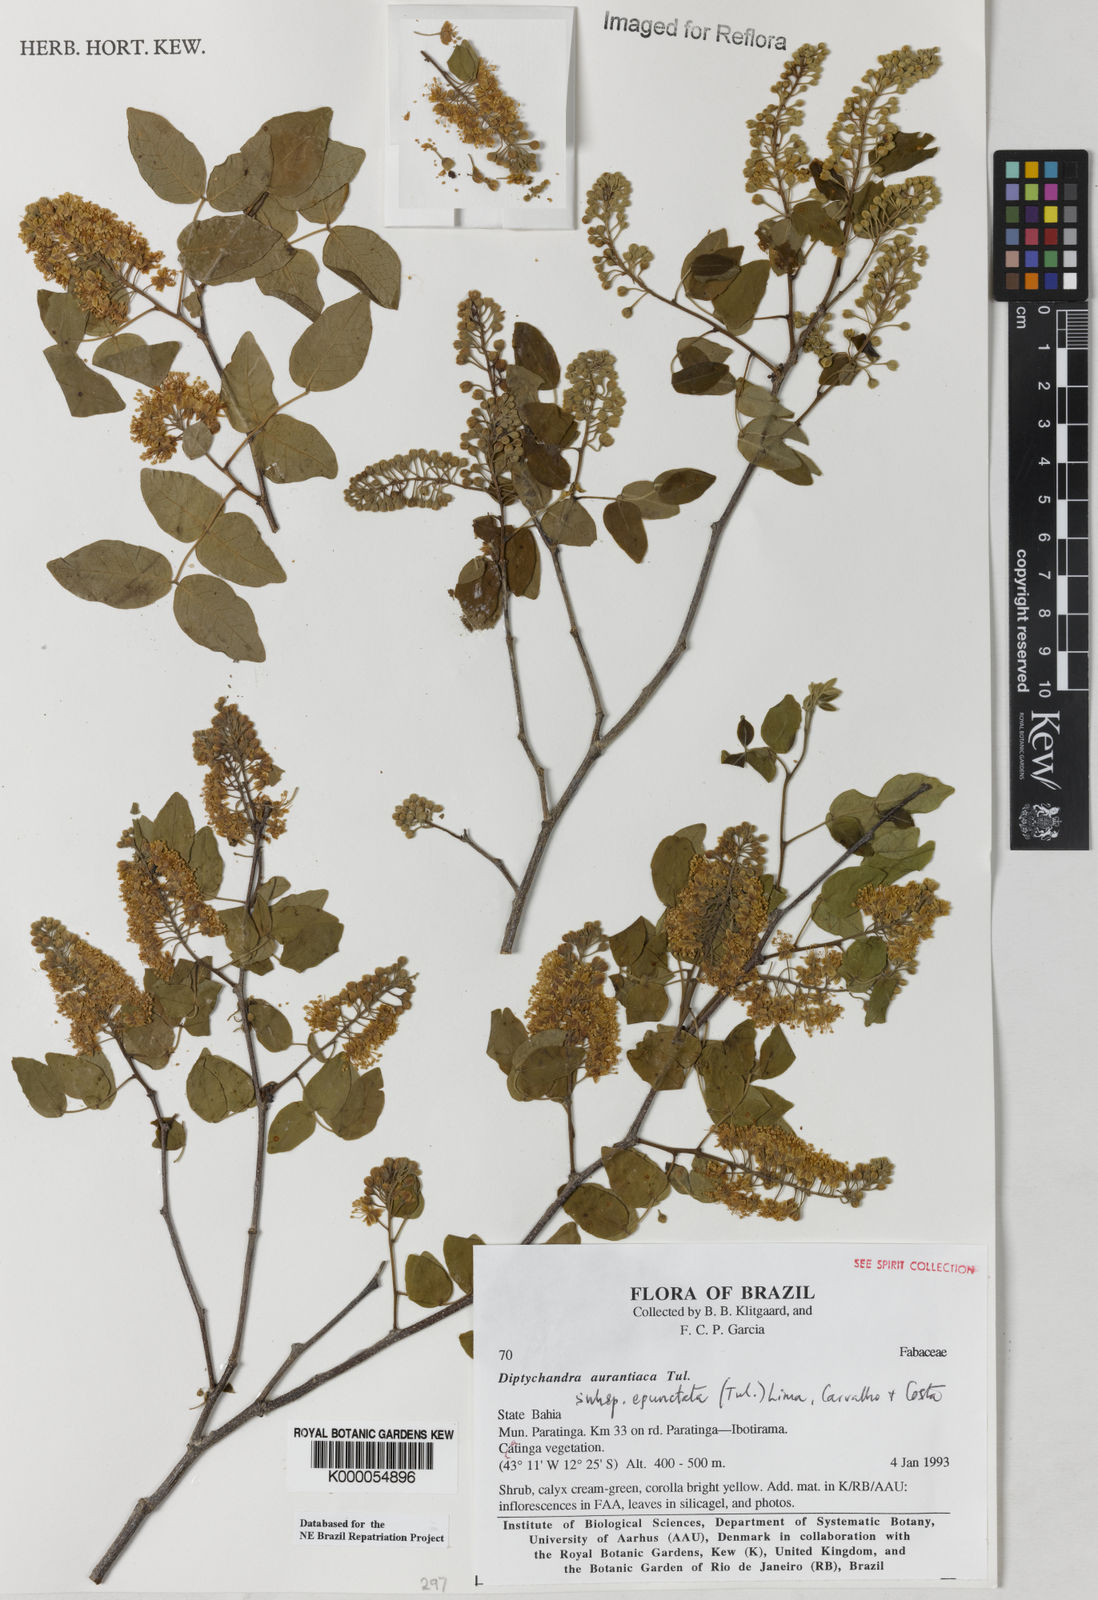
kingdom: Plantae
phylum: Tracheophyta
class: Magnoliopsida
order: Fabales
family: Fabaceae
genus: Diptychandra
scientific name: Diptychandra aurantiaca
